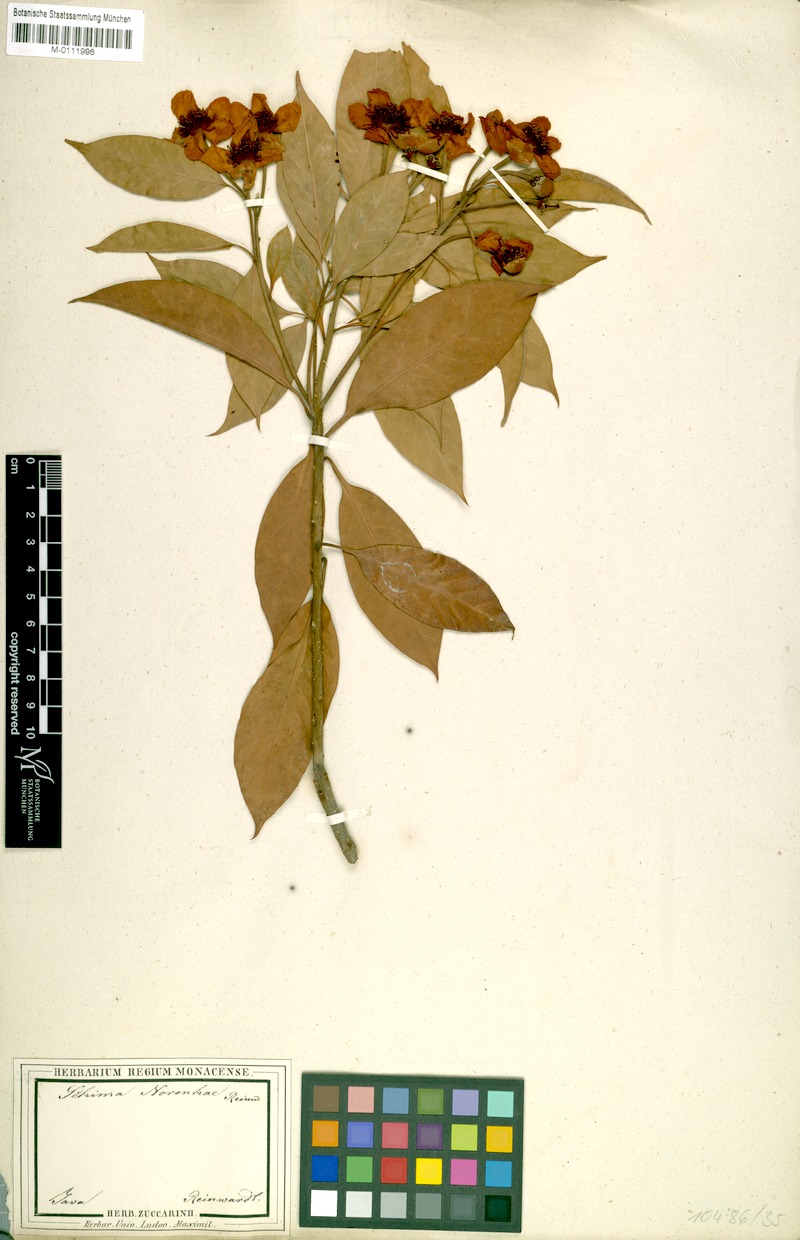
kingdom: Plantae
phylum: Tracheophyta
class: Magnoliopsida
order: Ericales
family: Theaceae
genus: Schima
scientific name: Schima noronhae
